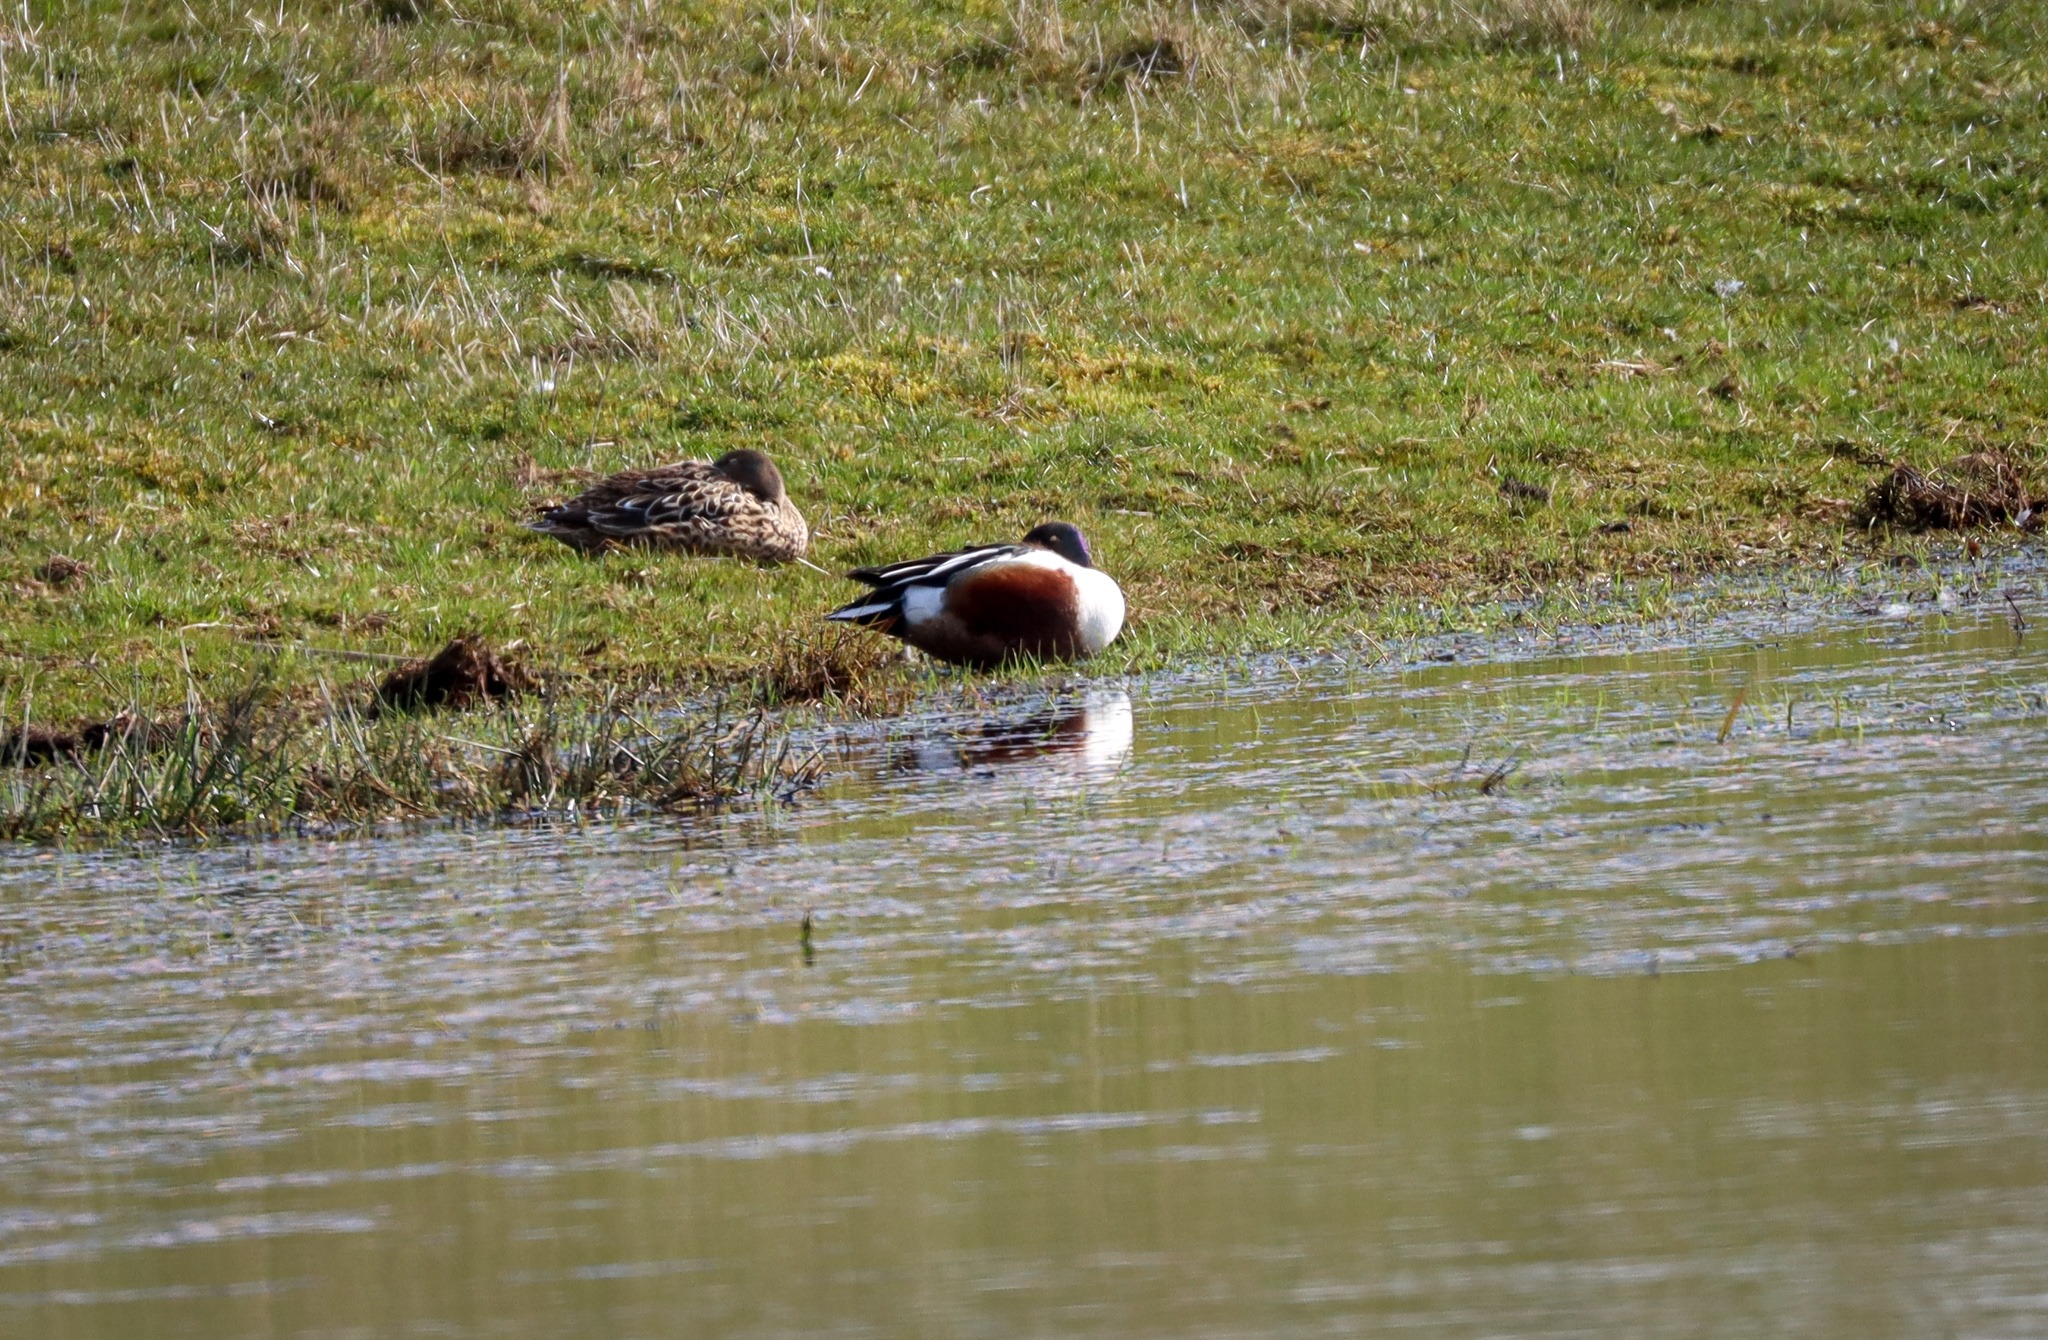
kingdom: Animalia
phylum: Chordata
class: Aves
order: Anseriformes
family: Anatidae
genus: Spatula
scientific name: Spatula clypeata
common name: Skeand
